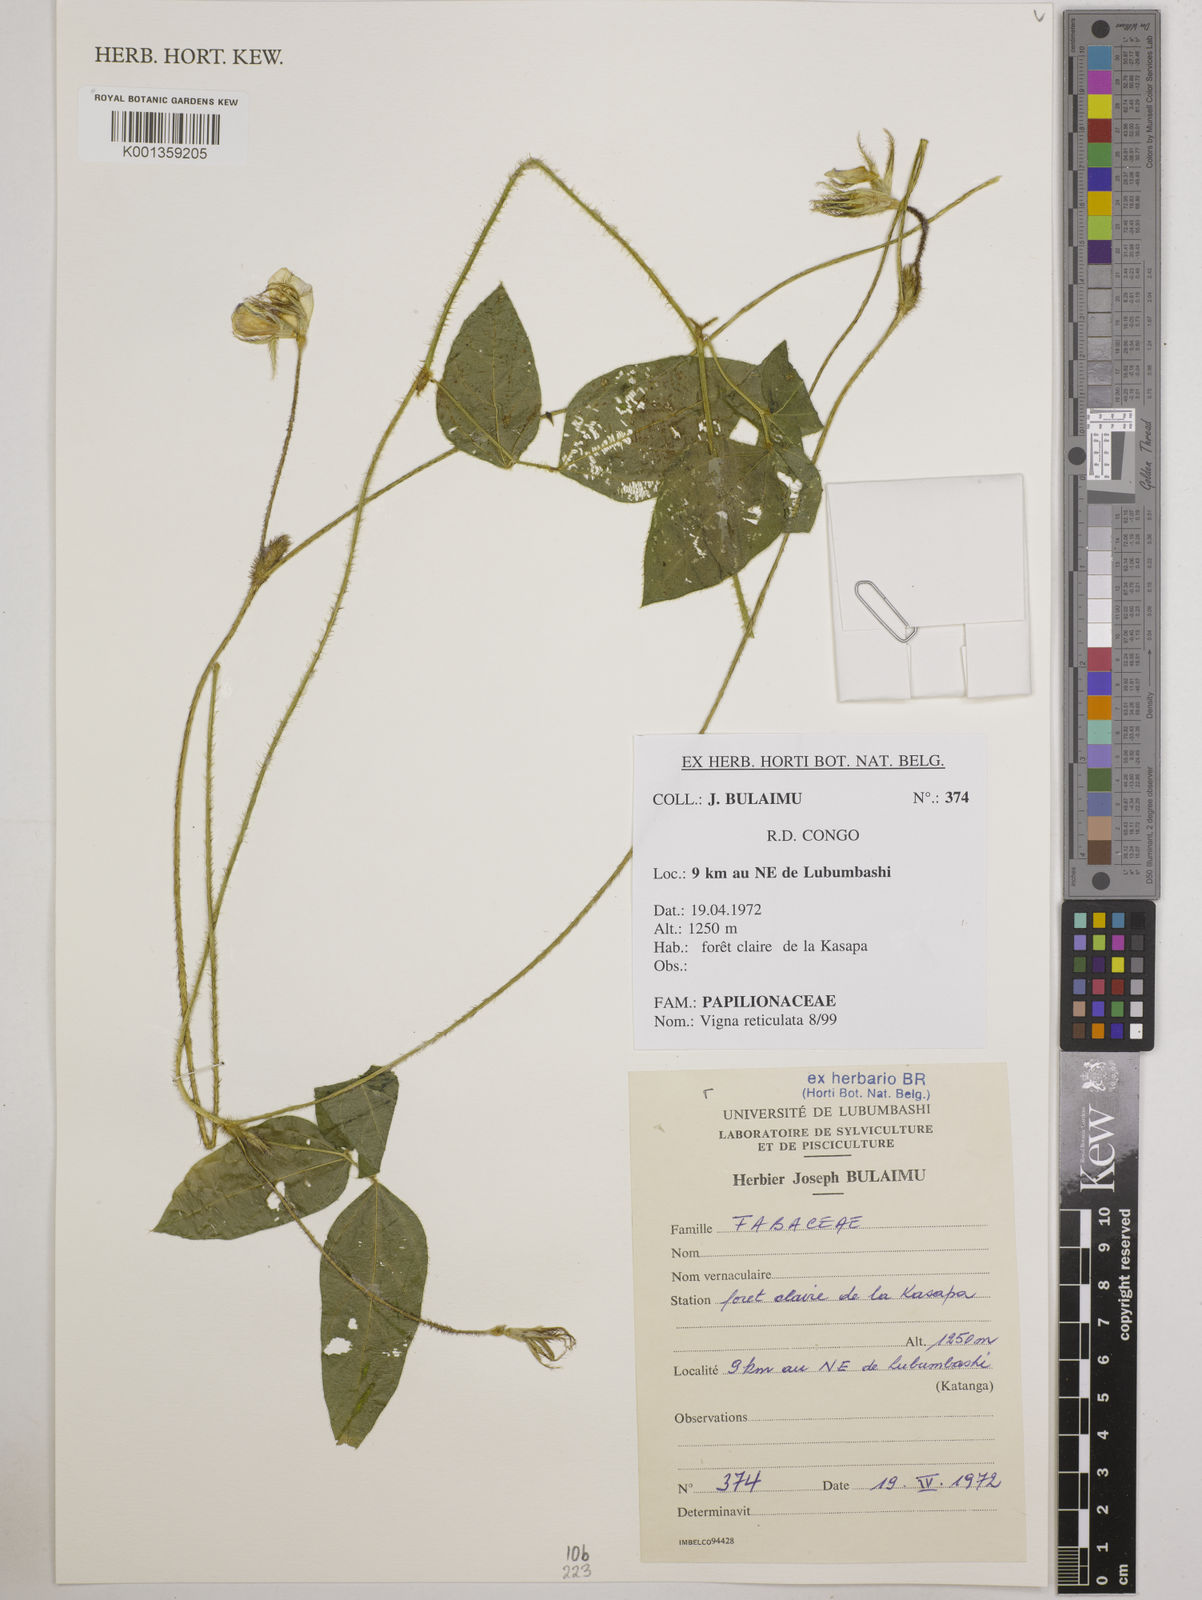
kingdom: Plantae
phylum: Tracheophyta
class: Magnoliopsida
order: Fabales
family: Fabaceae
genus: Vigna
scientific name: Vigna reticulata
